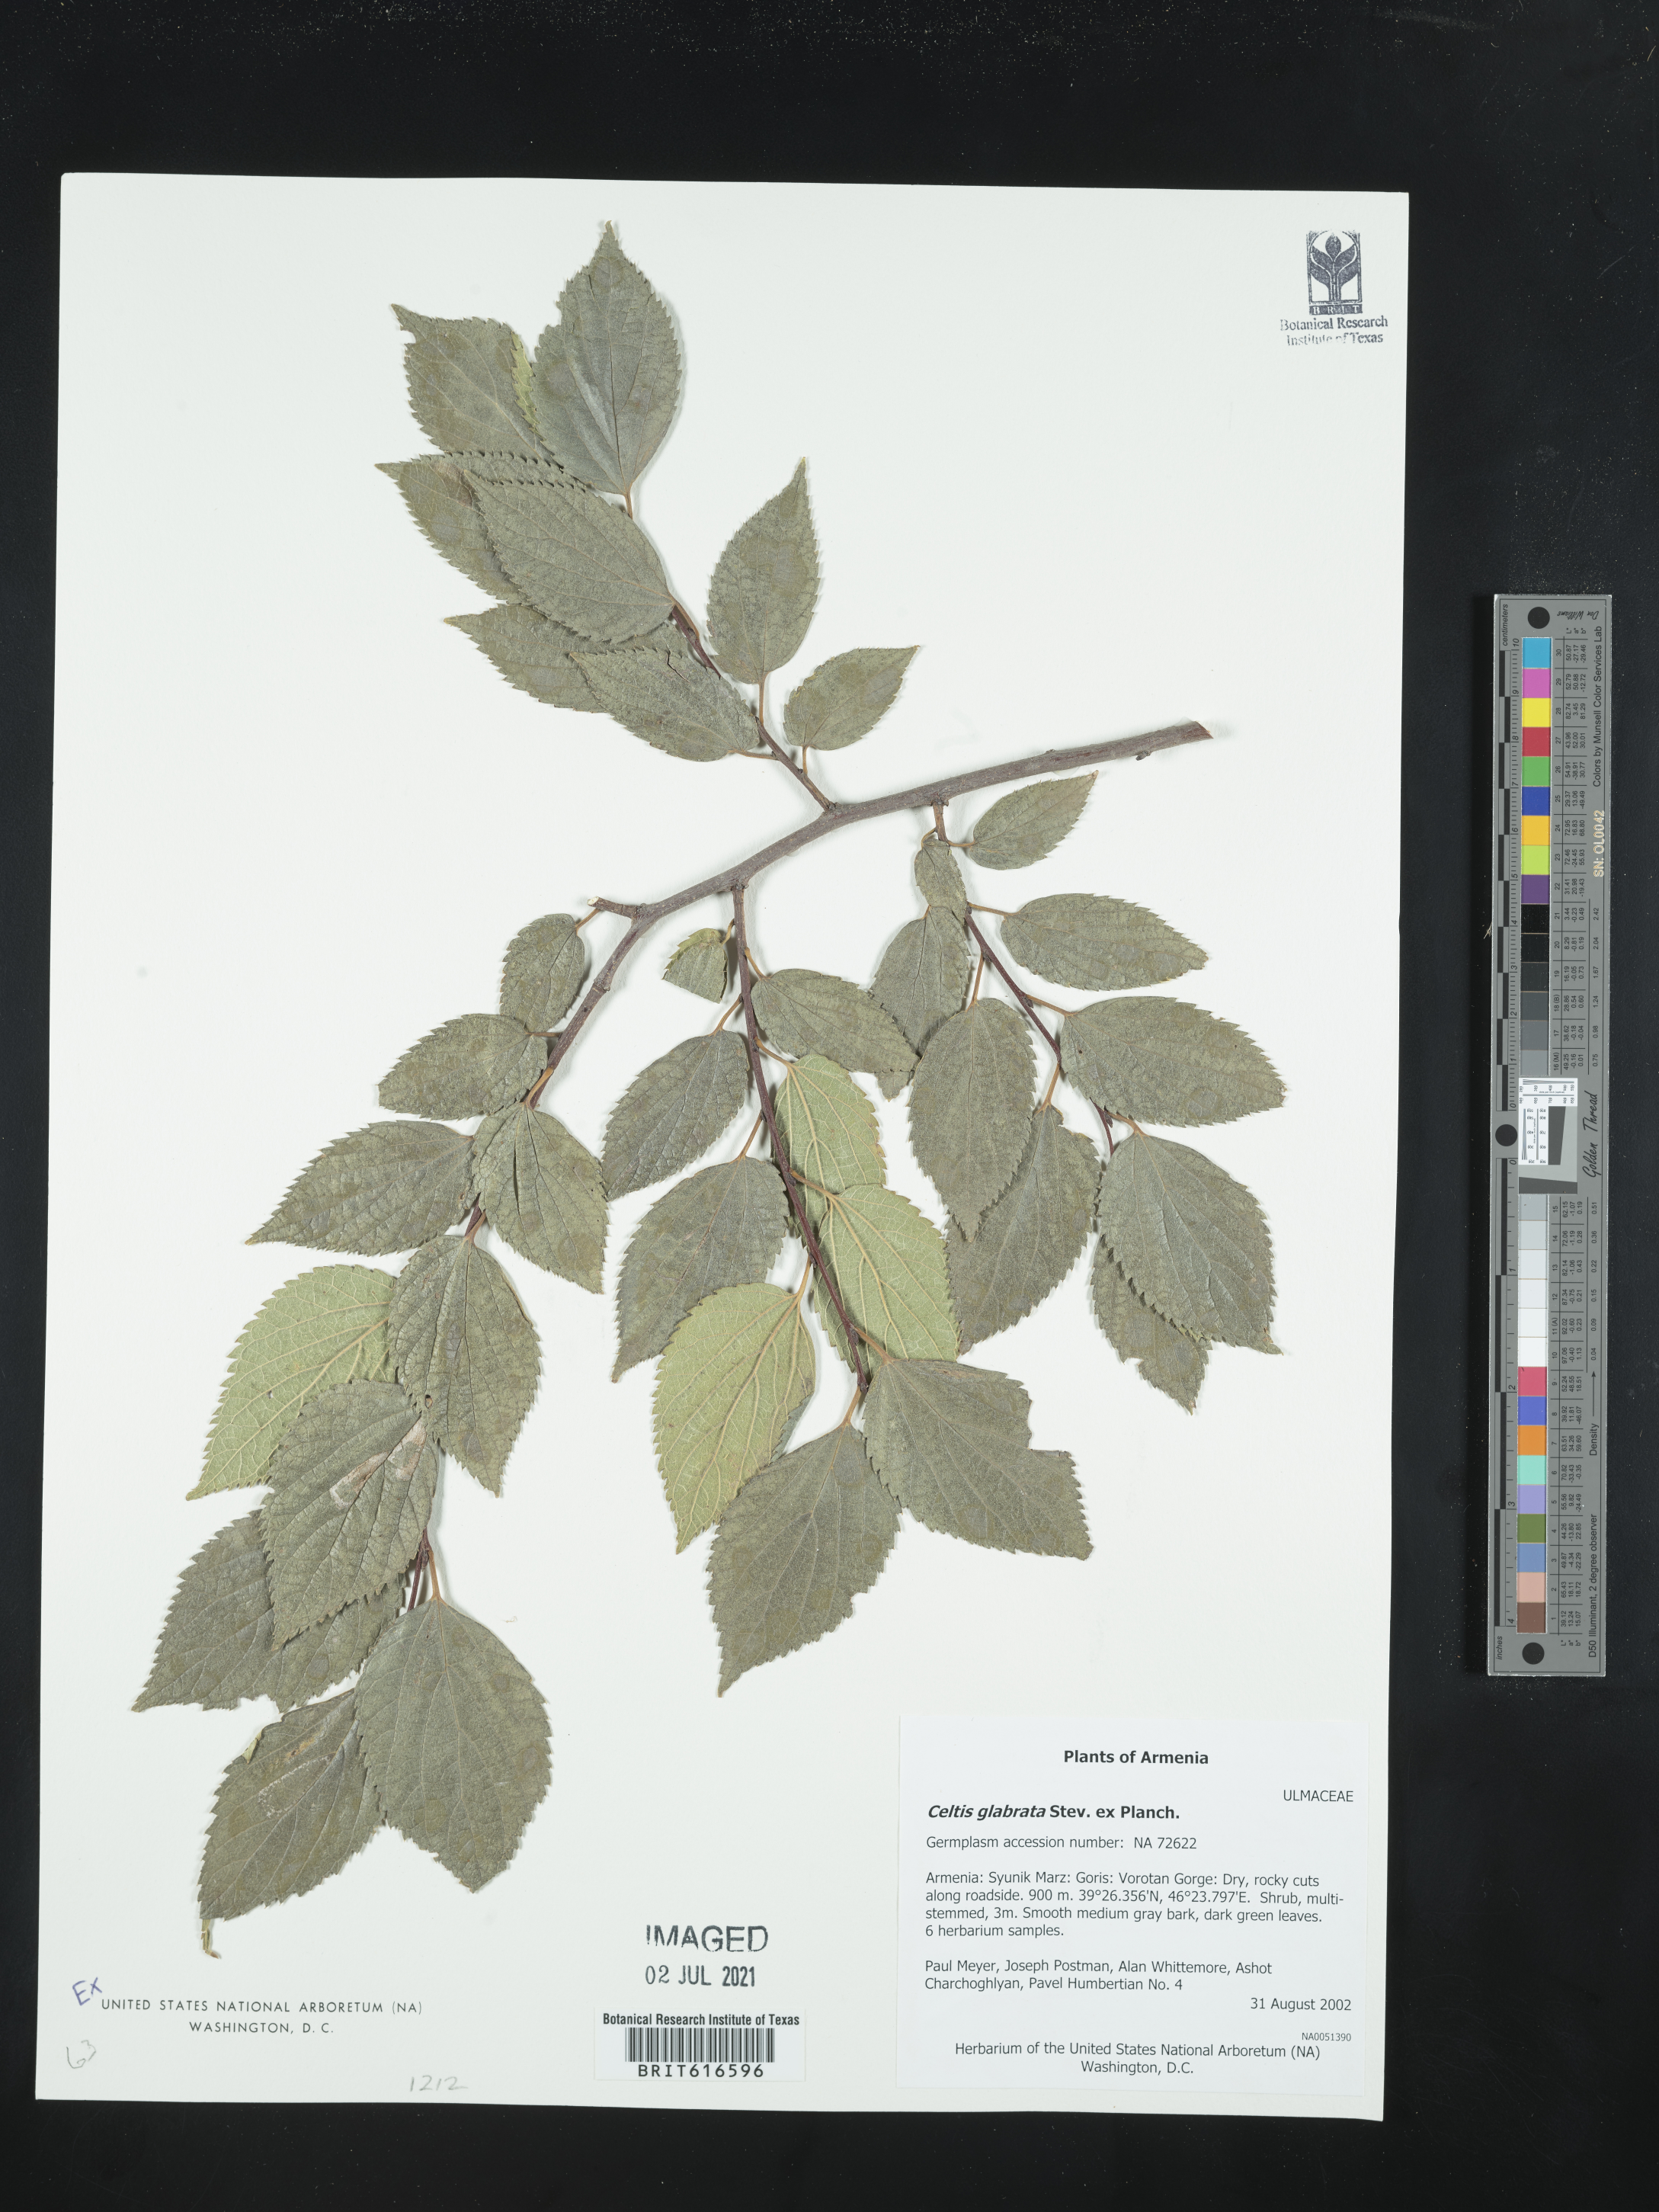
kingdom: Plantae
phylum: Tracheophyta
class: Magnoliopsida
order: Rosales
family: Cannabaceae
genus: Celtis
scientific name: Celtis glabrata
